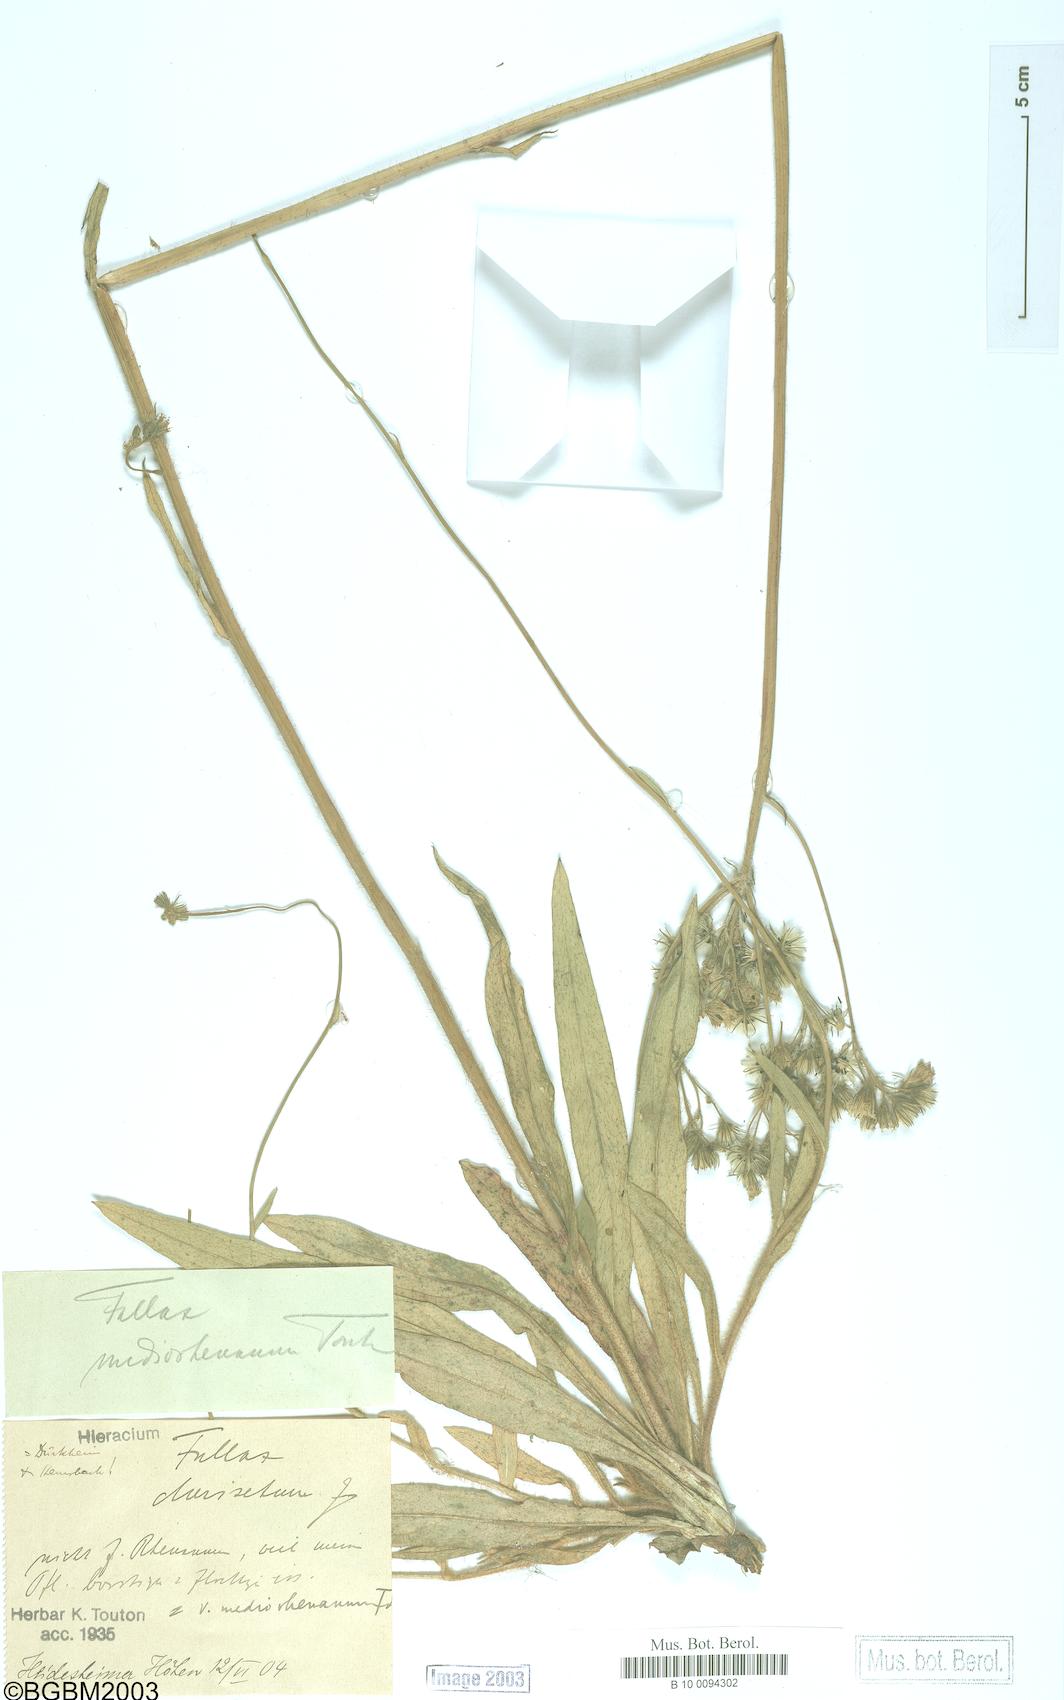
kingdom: Plantae
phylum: Tracheophyta
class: Magnoliopsida
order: Asterales
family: Asteraceae
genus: Hieracium
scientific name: Hieracium fallax
